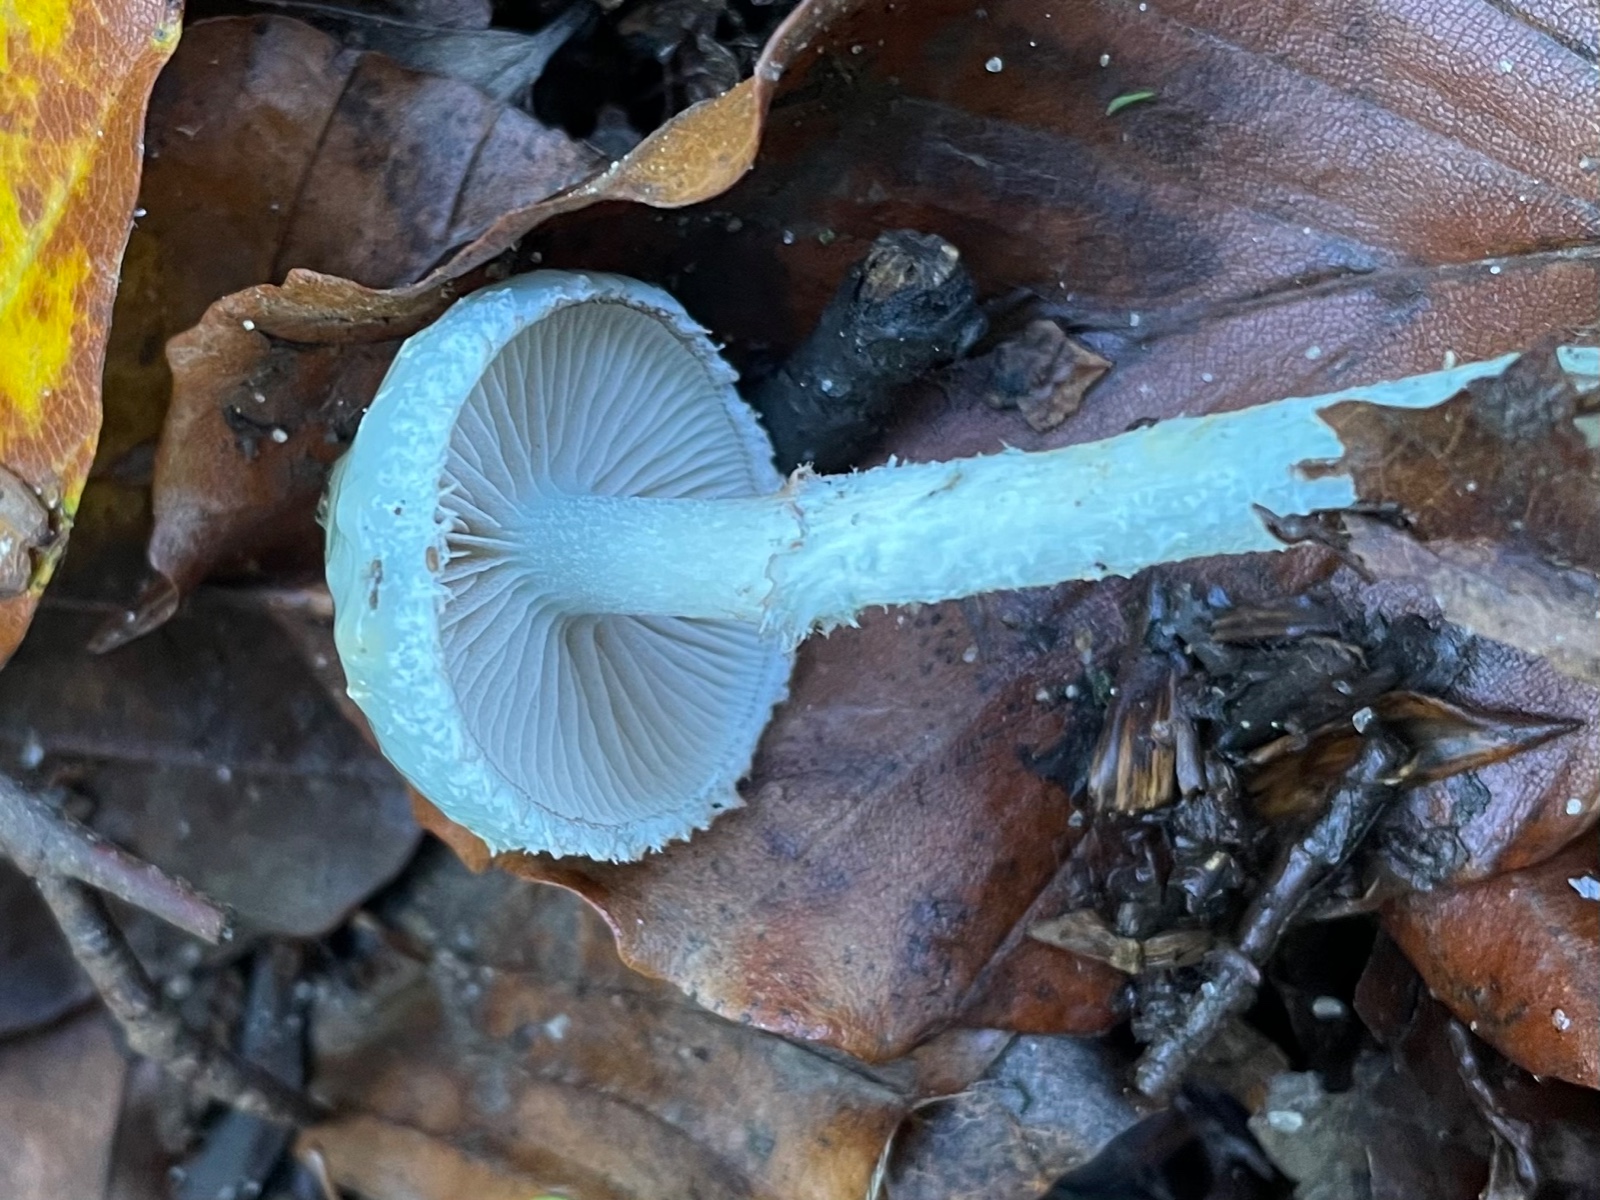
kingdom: Fungi
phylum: Basidiomycota
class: Agaricomycetes
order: Agaricales
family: Strophariaceae
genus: Stropharia
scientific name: Stropharia cyanea
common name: blågrøn bredblad
